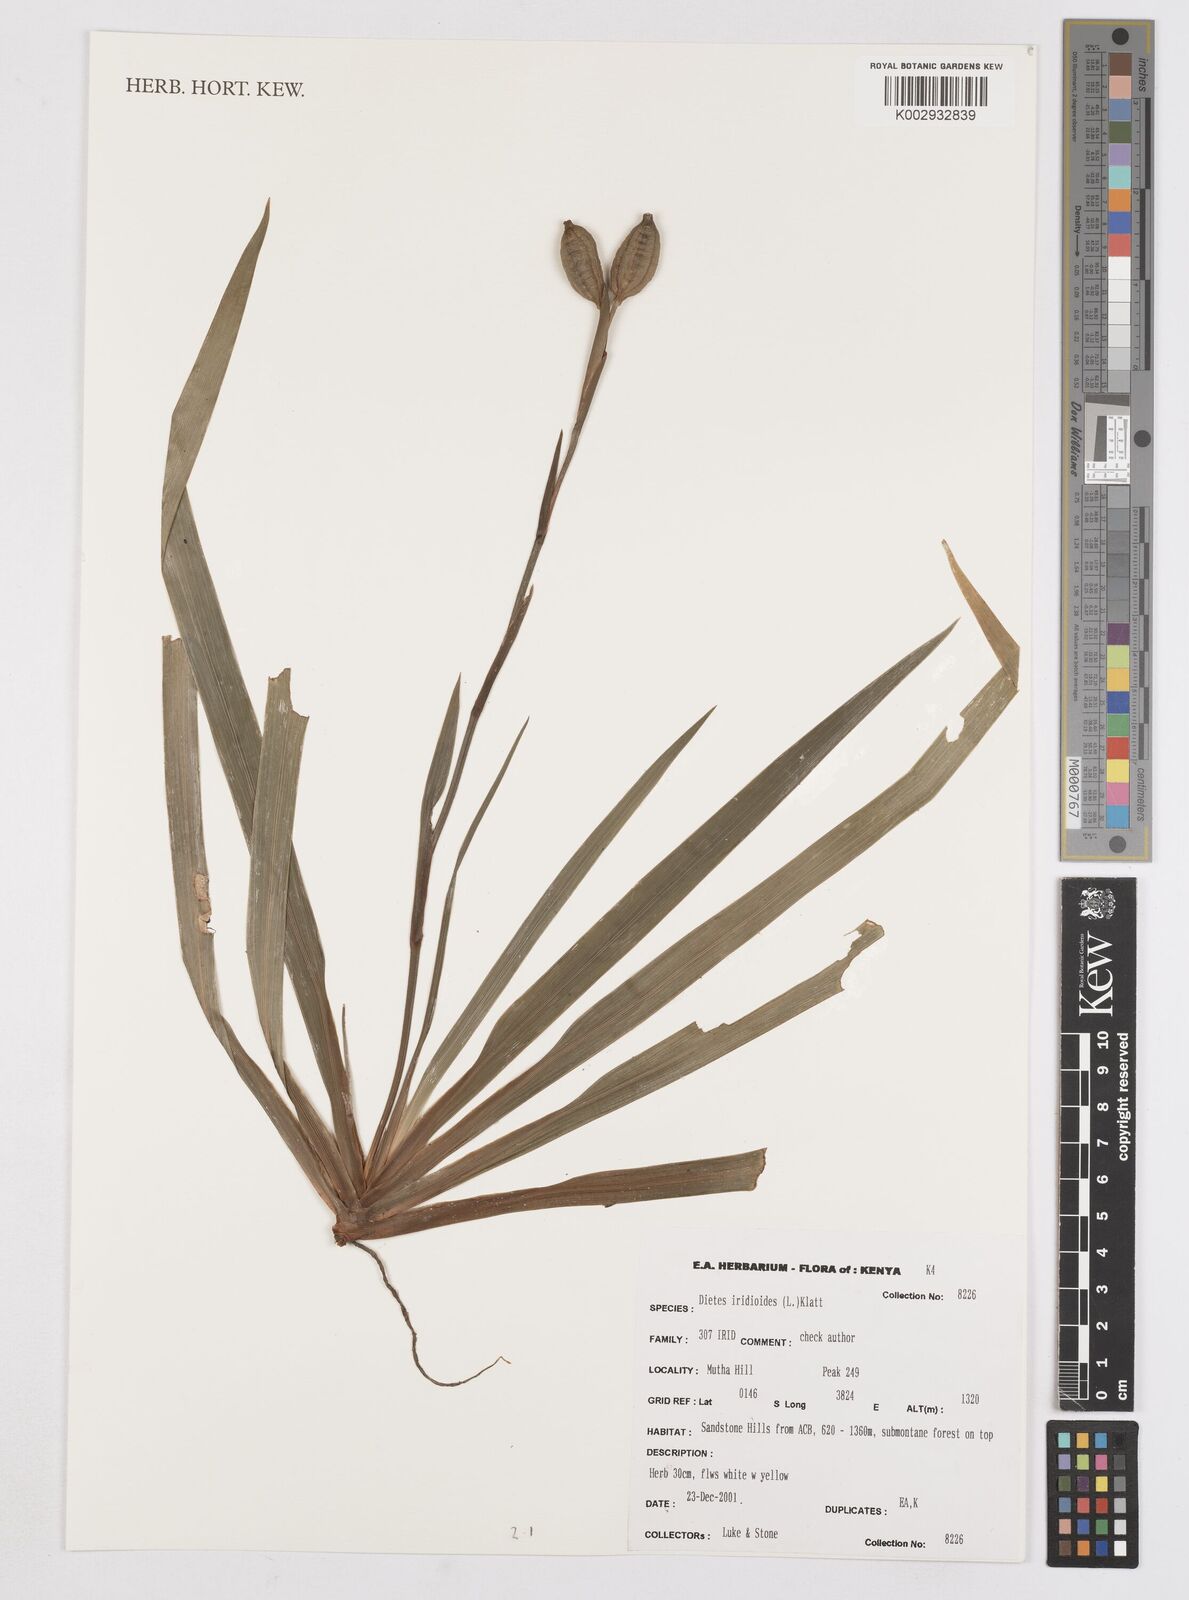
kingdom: Plantae
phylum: Tracheophyta
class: Liliopsida
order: Asparagales
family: Iridaceae
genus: Dietes
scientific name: Dietes iridioides
